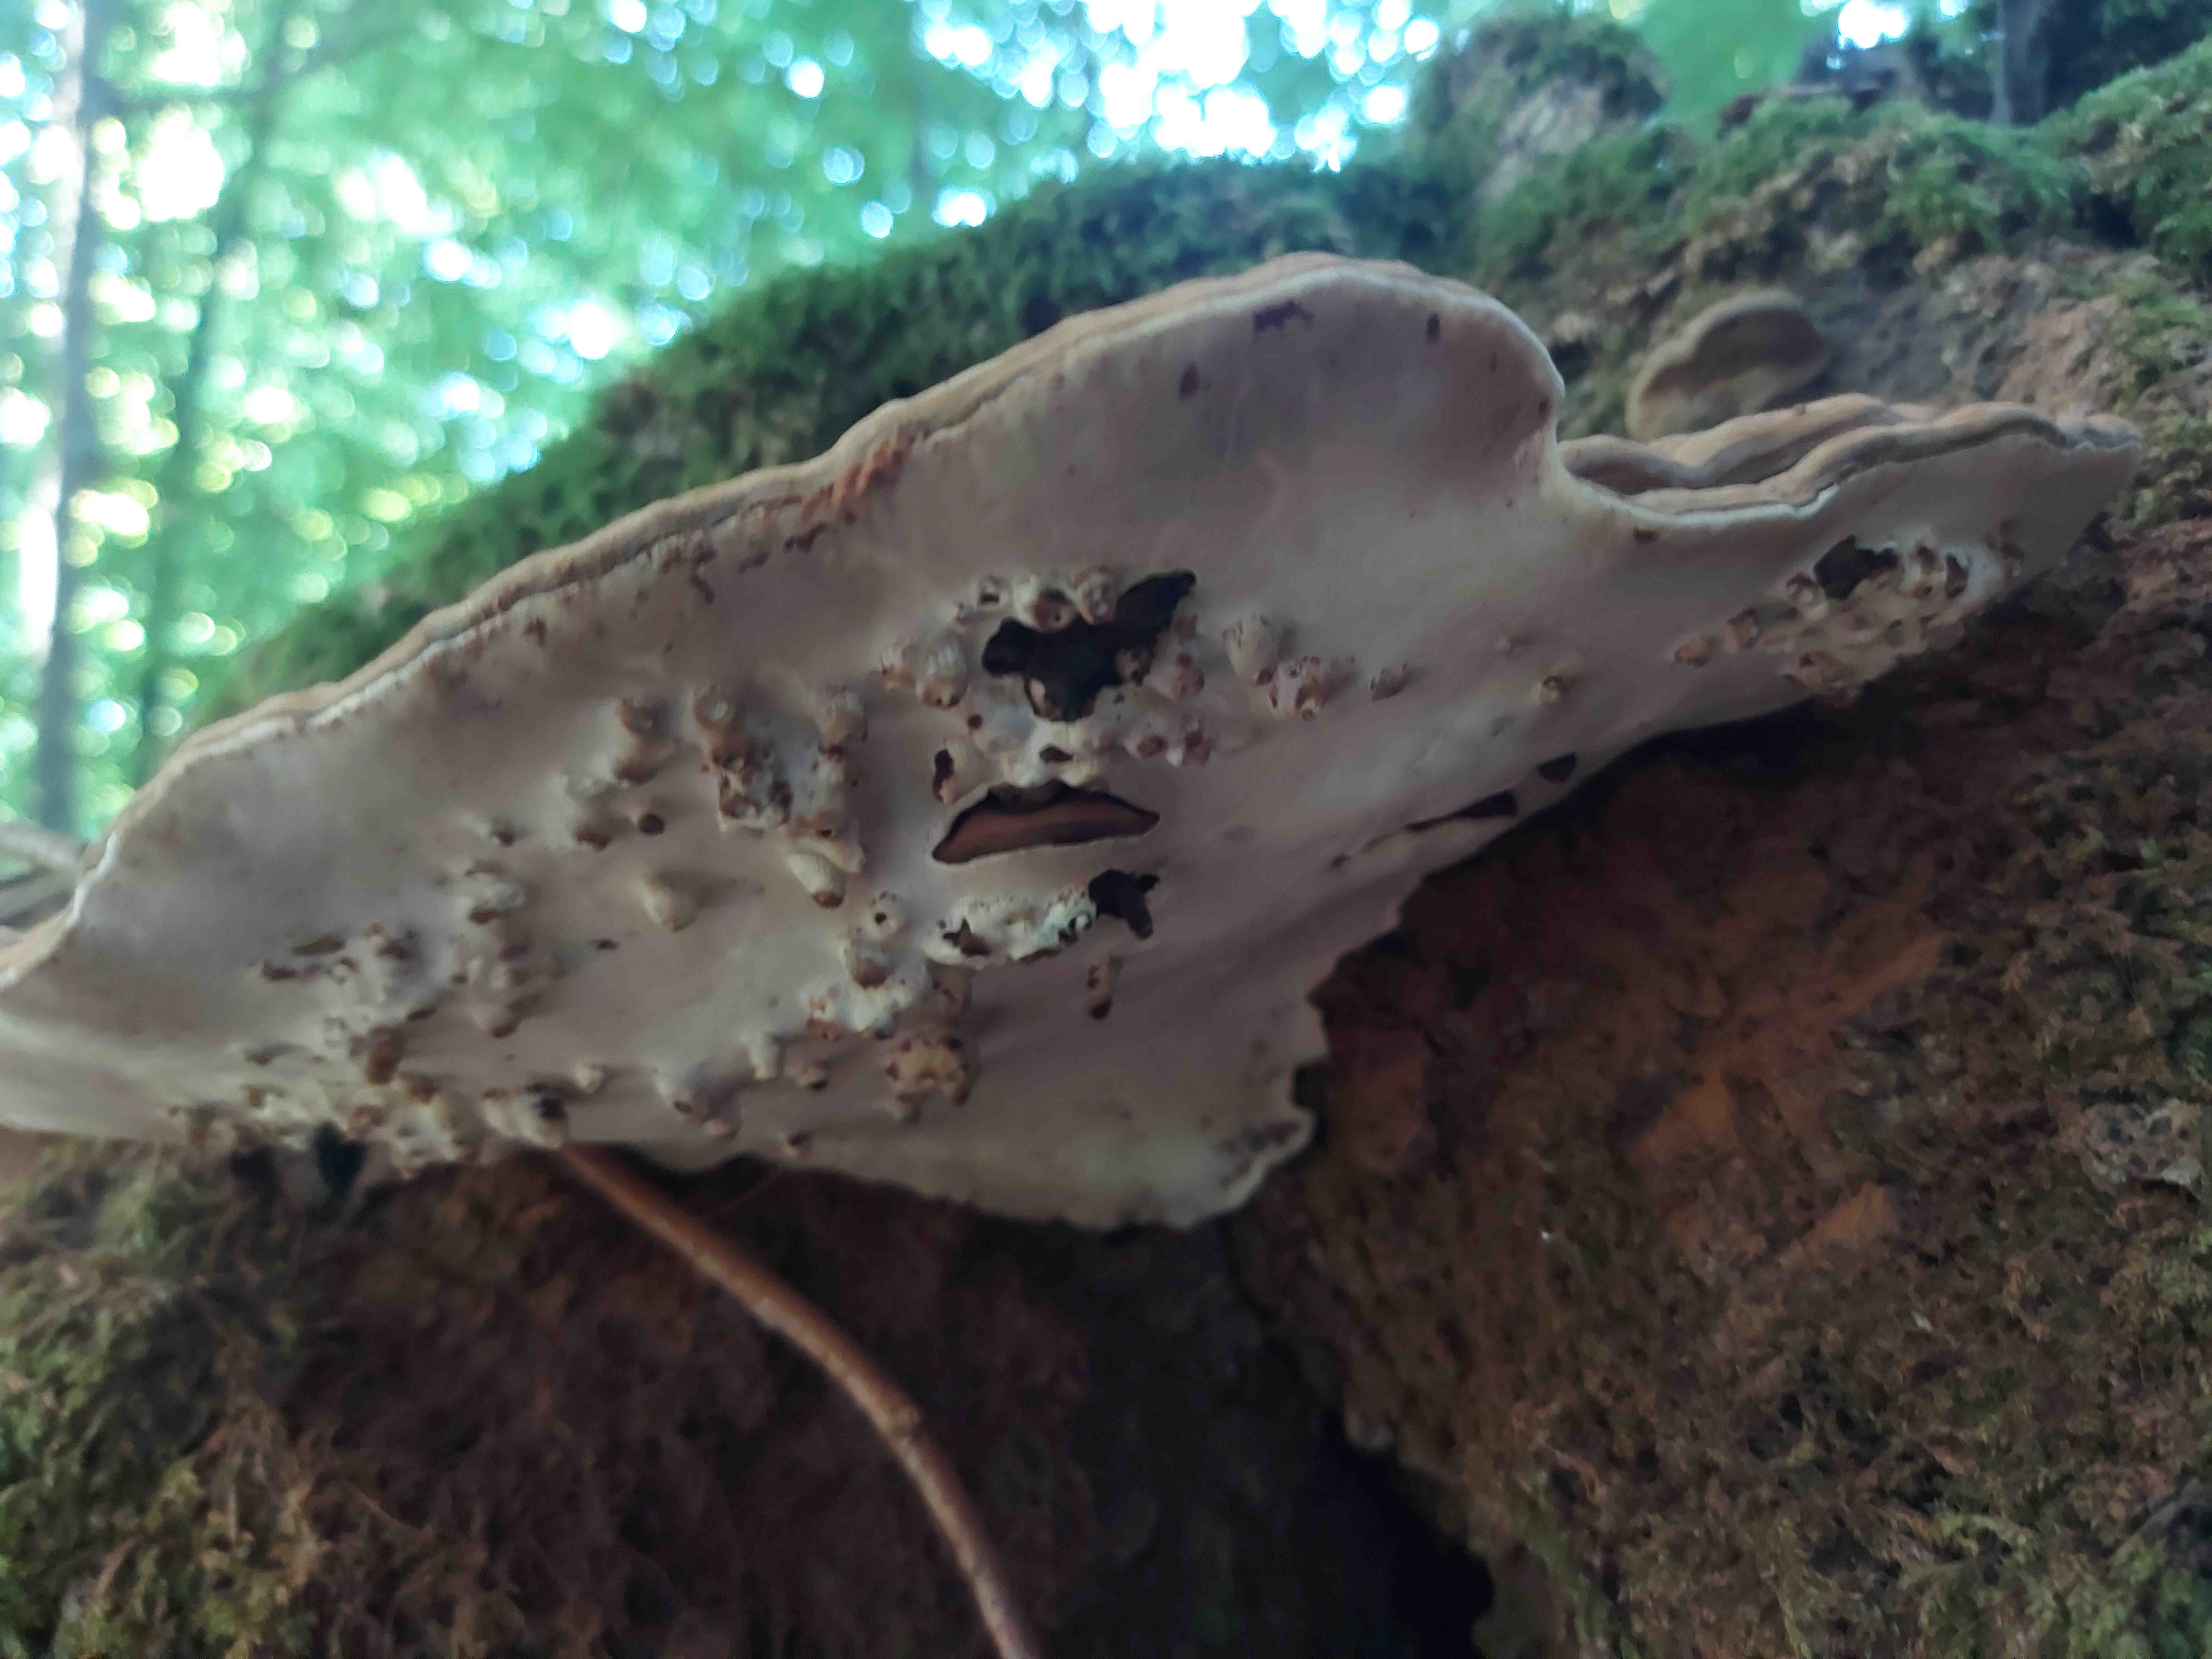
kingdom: Fungi
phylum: Basidiomycota
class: Agaricomycetes
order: Polyporales
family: Polyporaceae
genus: Ganoderma
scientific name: Ganoderma applanatum
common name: flad lakporesvamp
